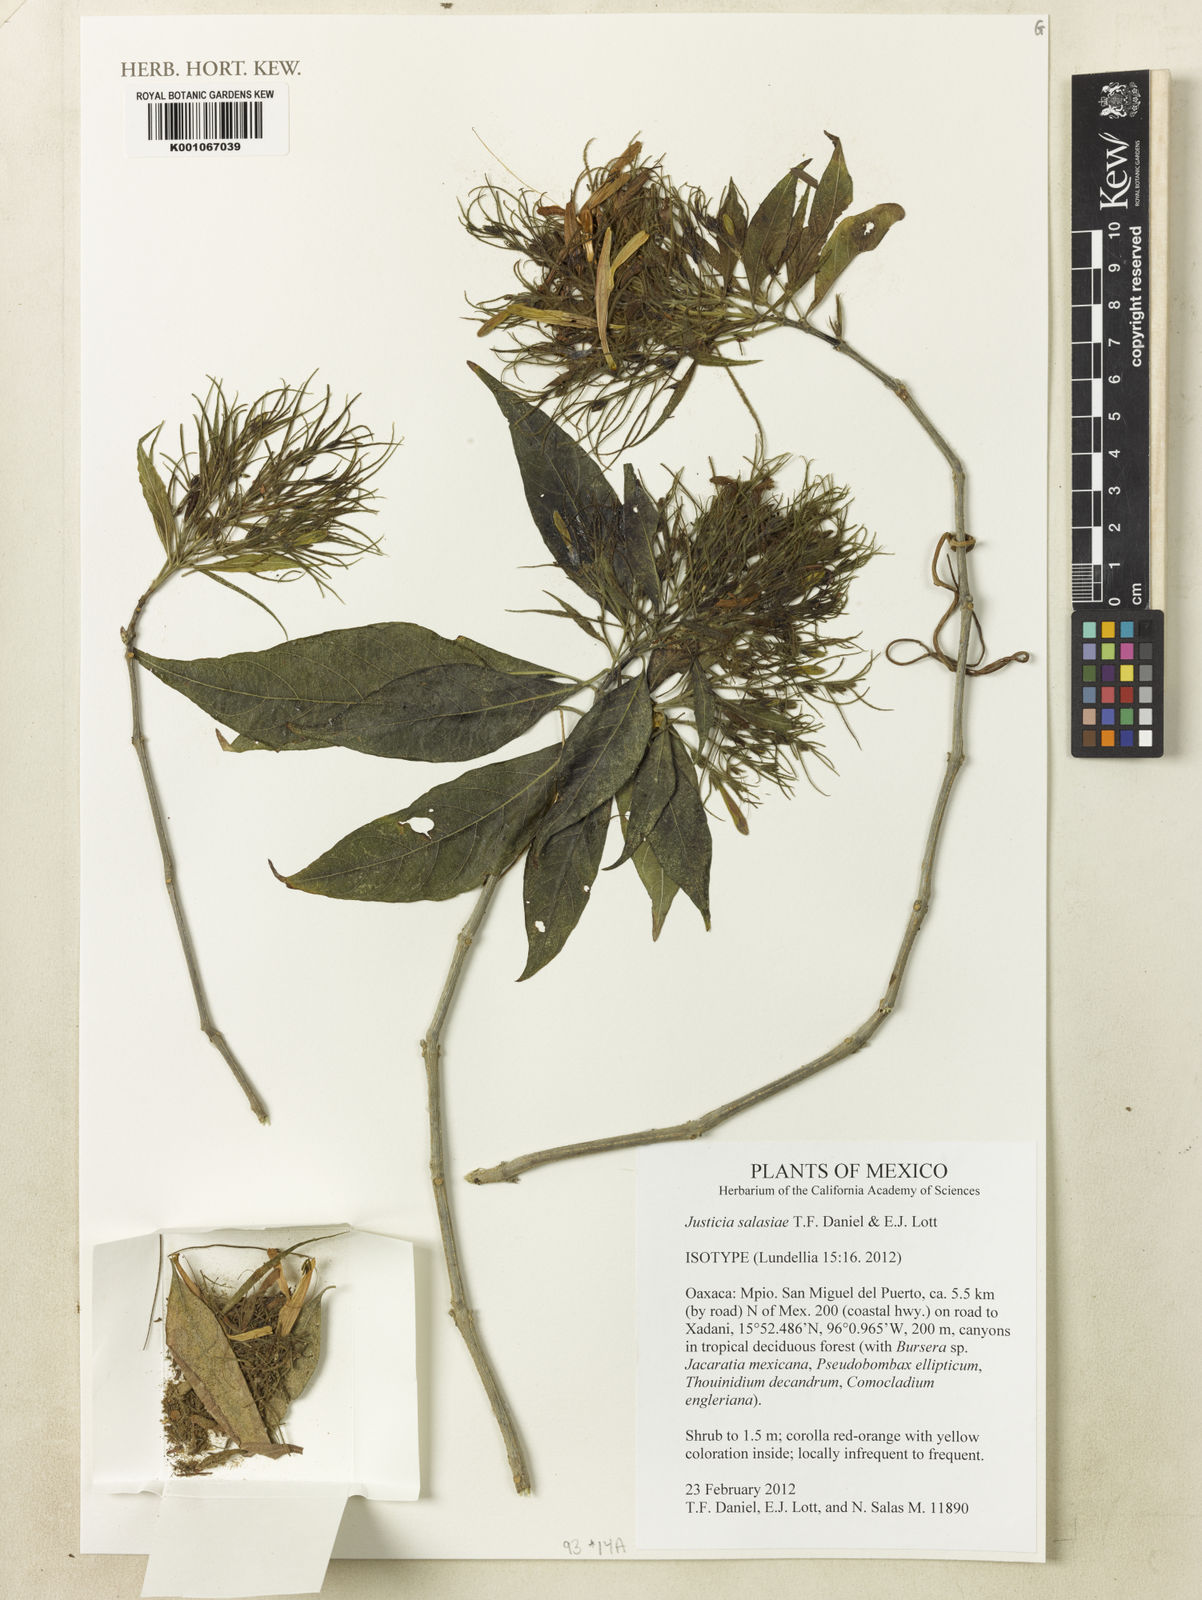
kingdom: Plantae
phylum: Tracheophyta
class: Magnoliopsida
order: Lamiales
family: Acanthaceae
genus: Justicia
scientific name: Justicia salasiae
